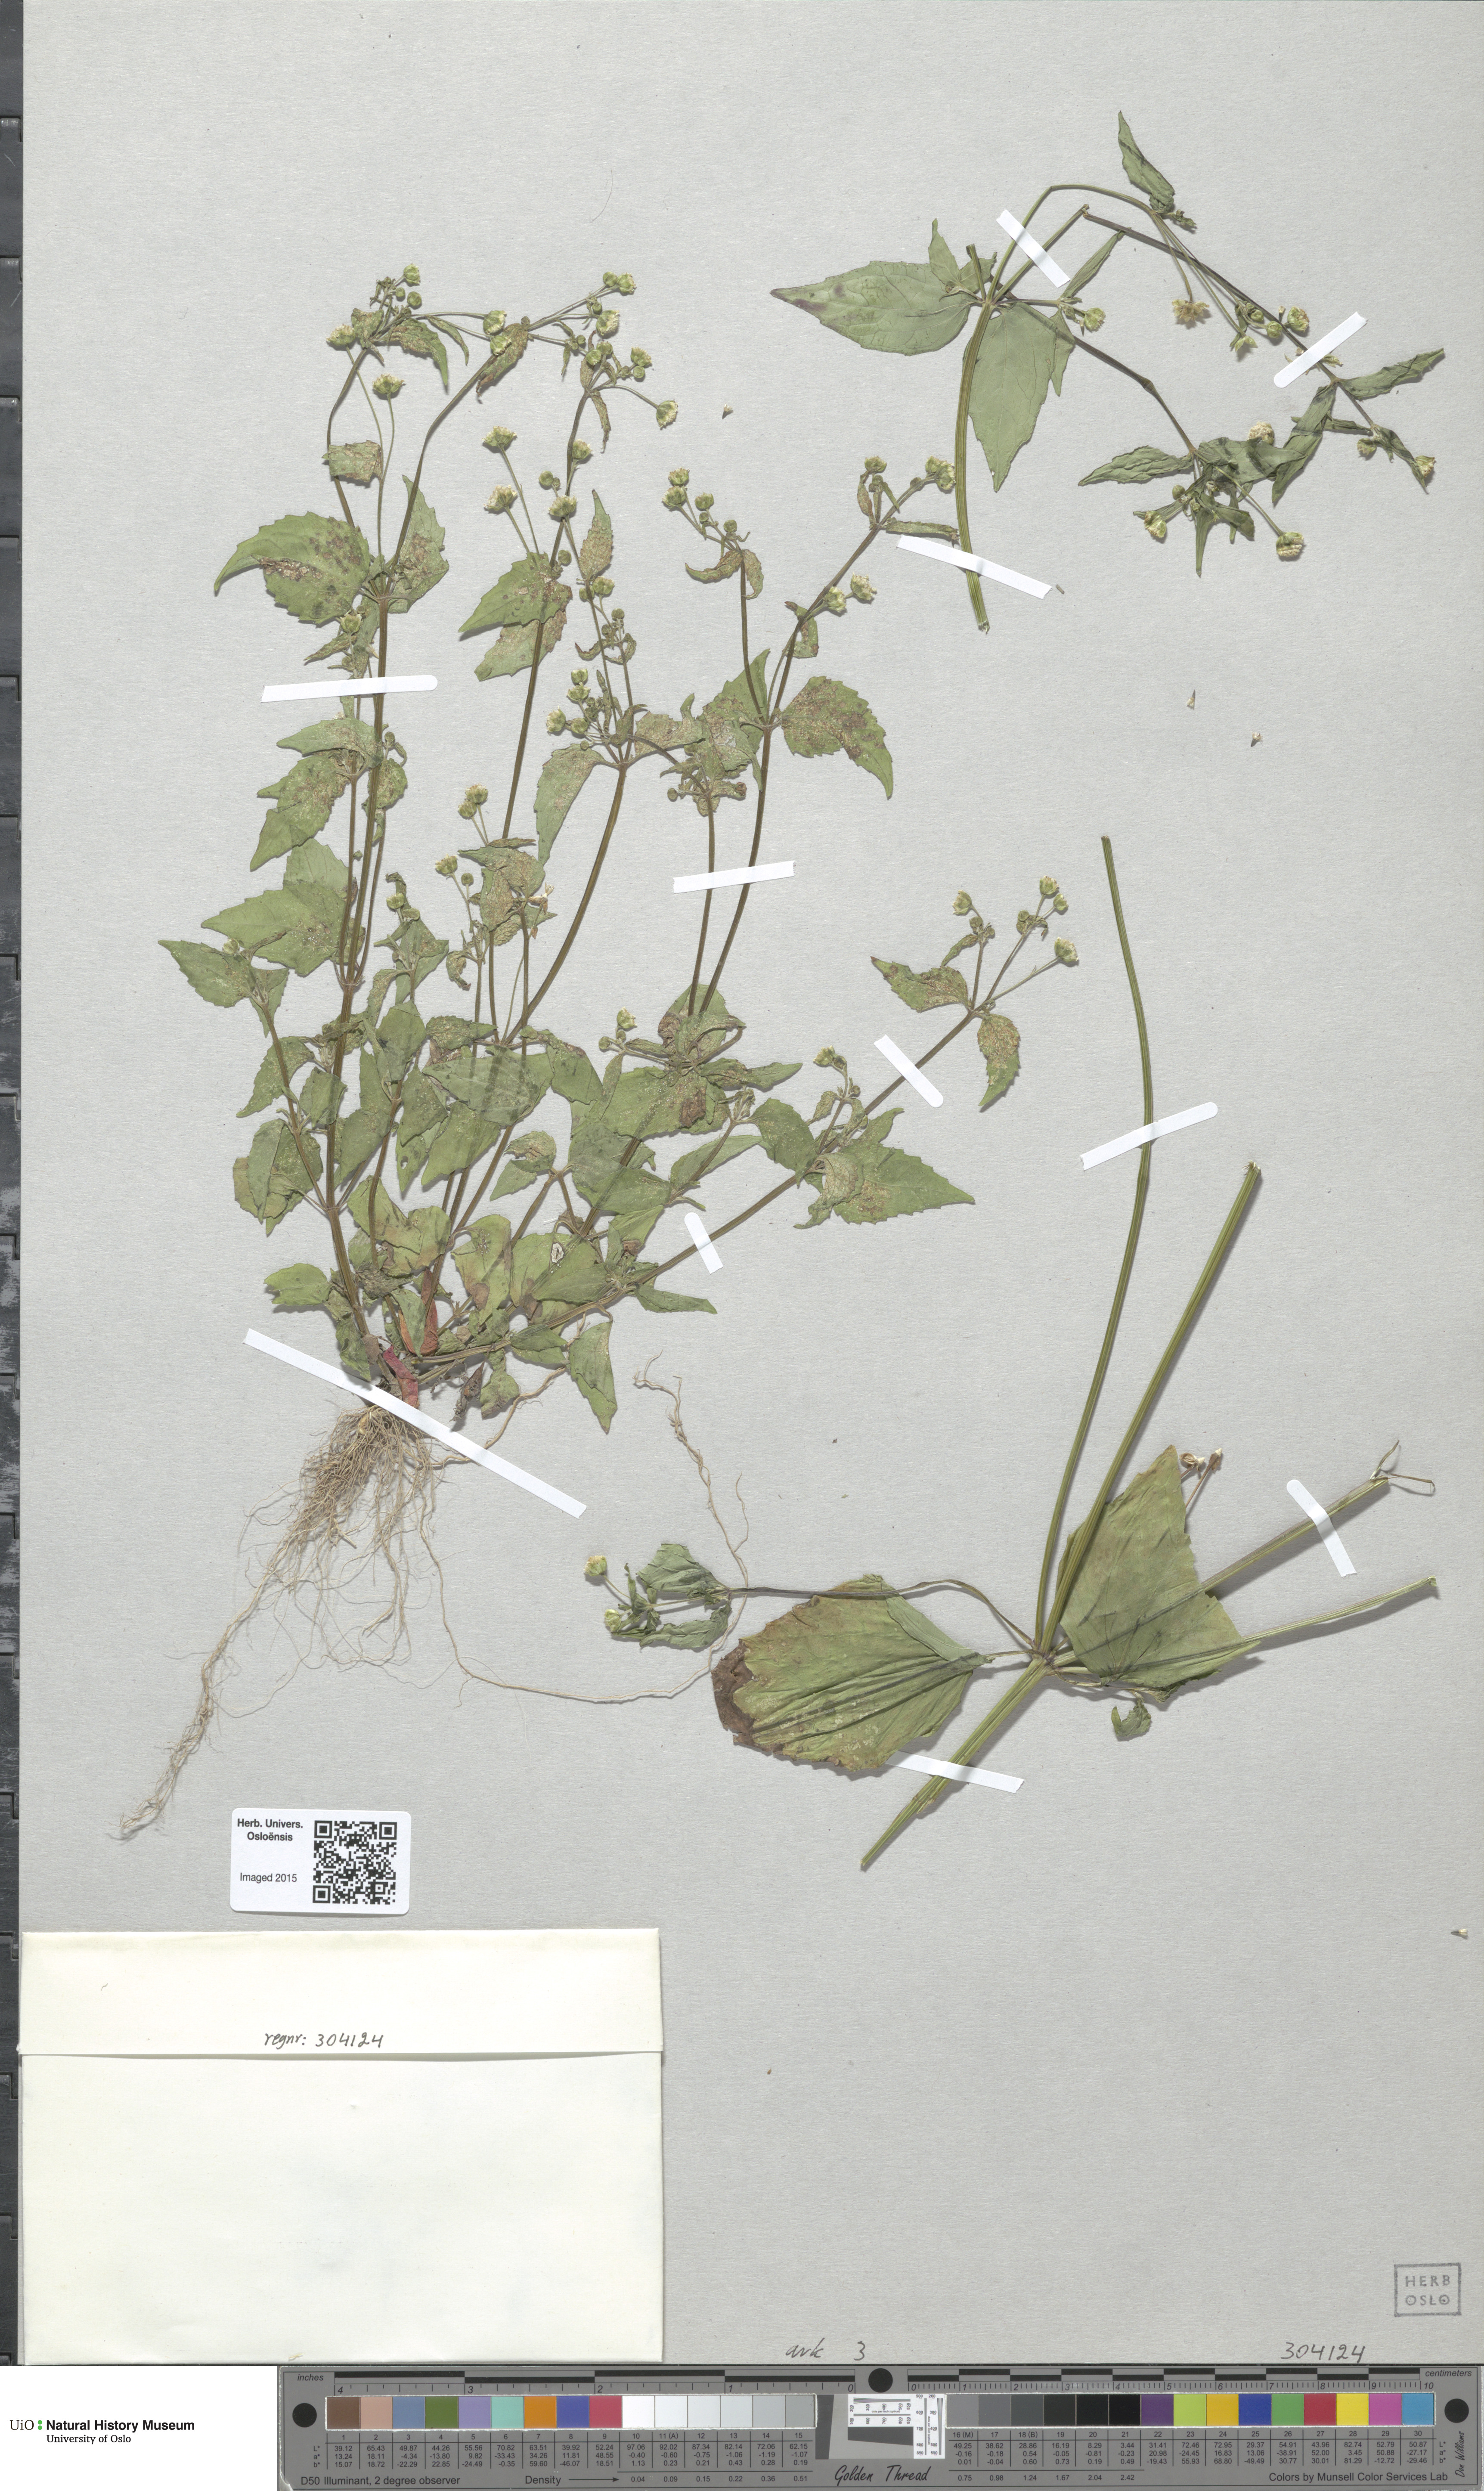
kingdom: Plantae
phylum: Tracheophyta
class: Magnoliopsida
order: Asterales
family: Asteraceae
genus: Galinsoga
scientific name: Galinsoga parviflora
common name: Gallant soldier
